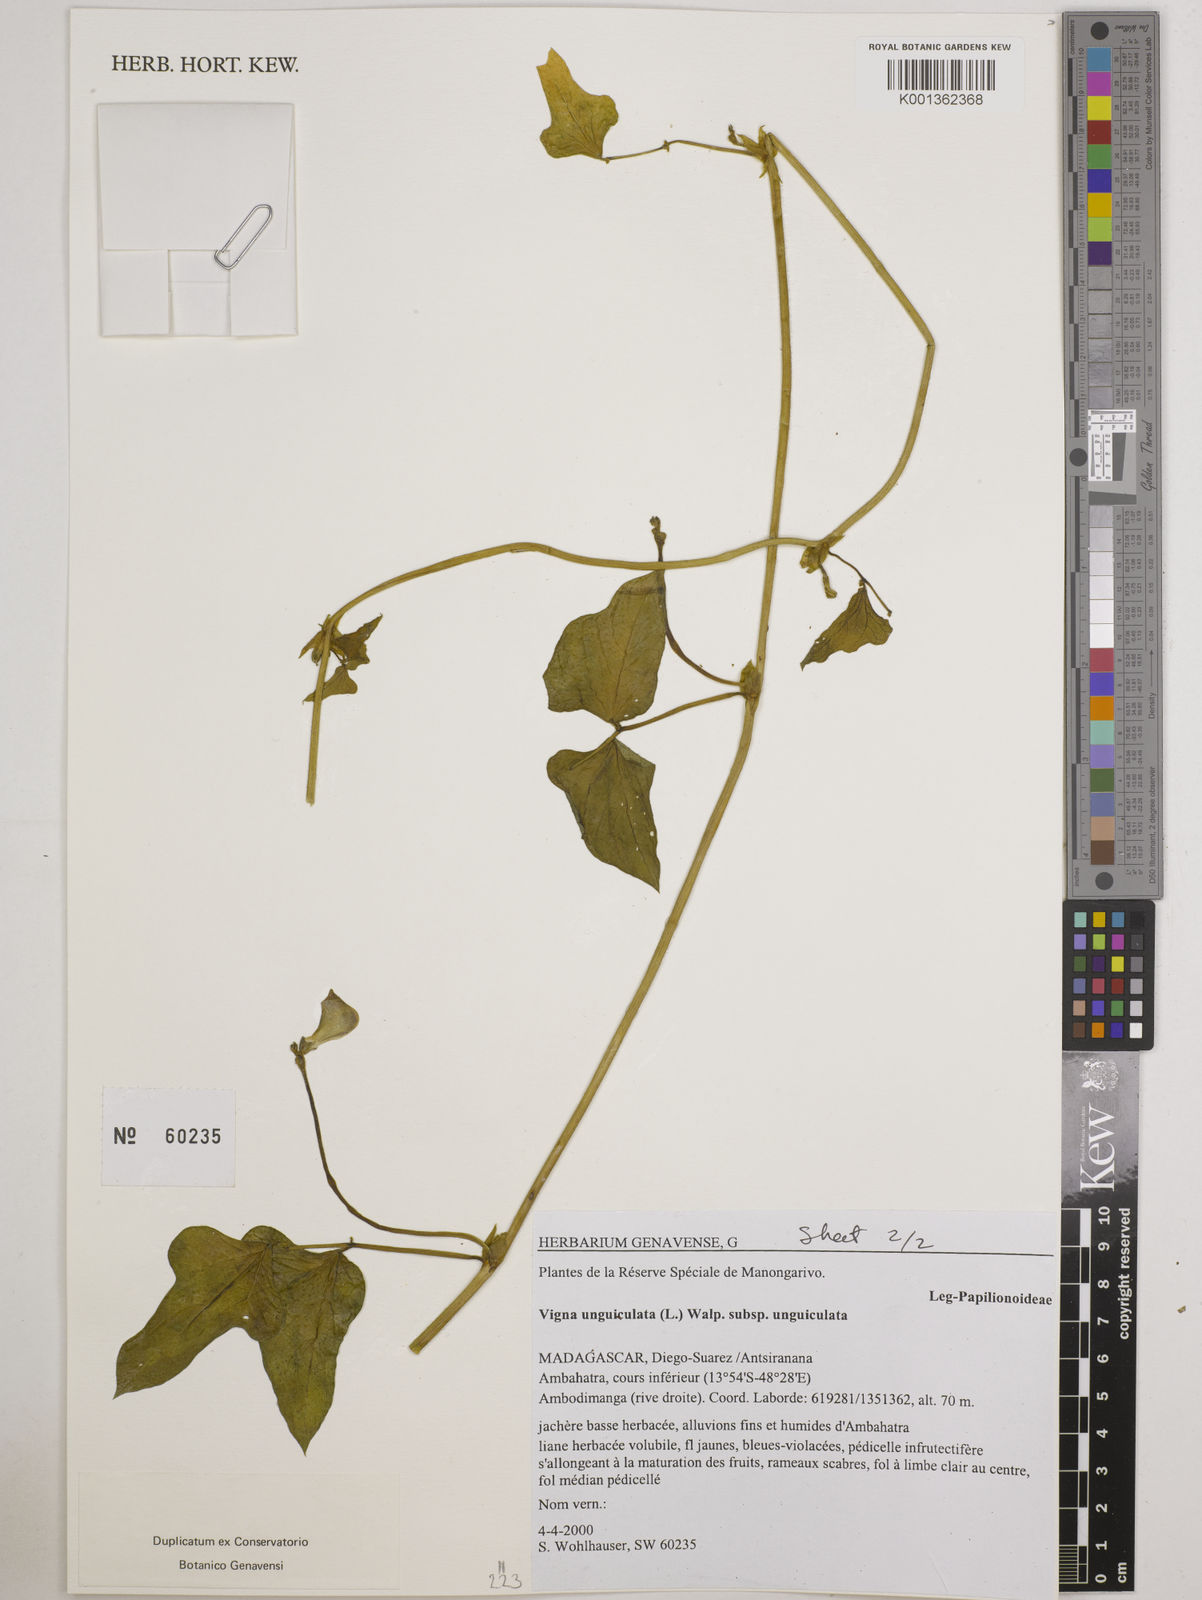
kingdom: Plantae
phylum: Tracheophyta
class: Magnoliopsida
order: Fabales
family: Fabaceae
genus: Vigna
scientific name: Vigna
